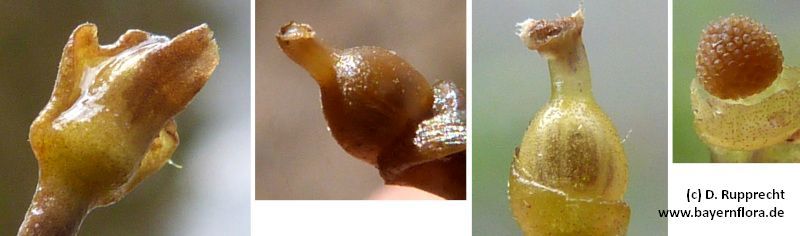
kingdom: Plantae
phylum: Tracheophyta
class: Magnoliopsida
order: Lamiales
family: Lentibulariaceae
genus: Utricularia
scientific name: Utricularia australis
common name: Bladderwort
